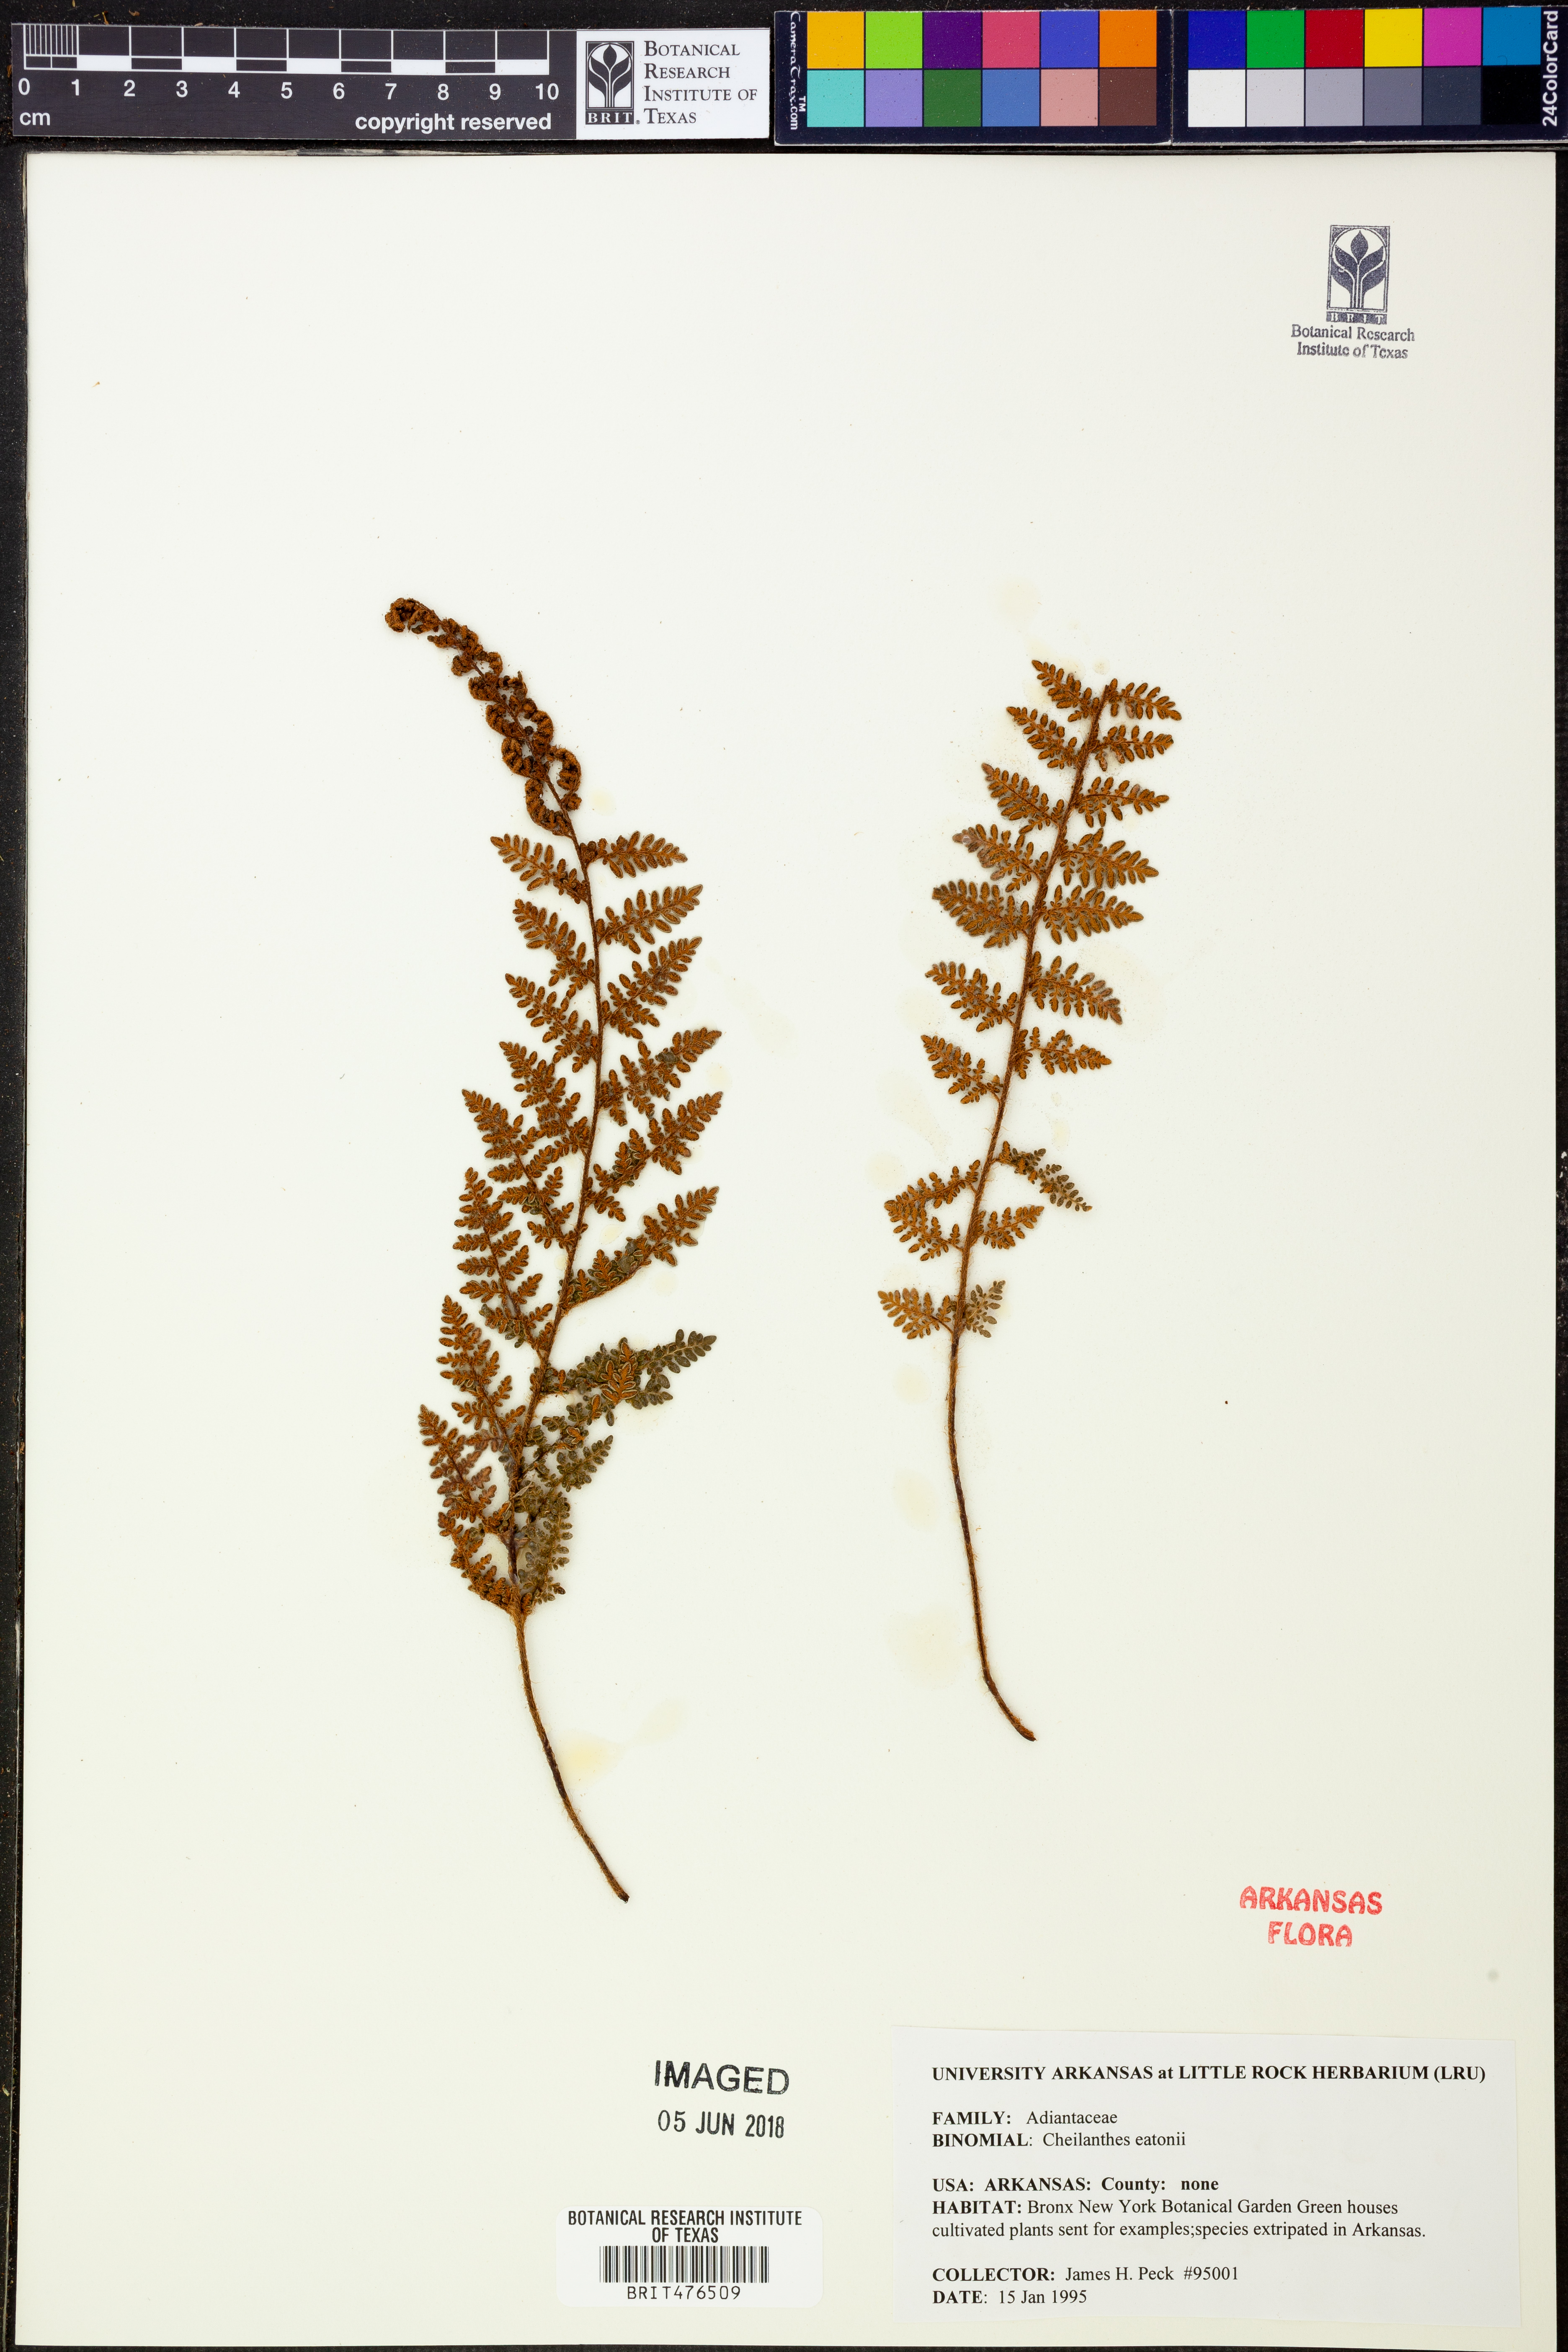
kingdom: Plantae
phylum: Tracheophyta
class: Polypodiopsida
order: Polypodiales
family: Pteridaceae
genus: Myriopteris
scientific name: Myriopteris rufa
